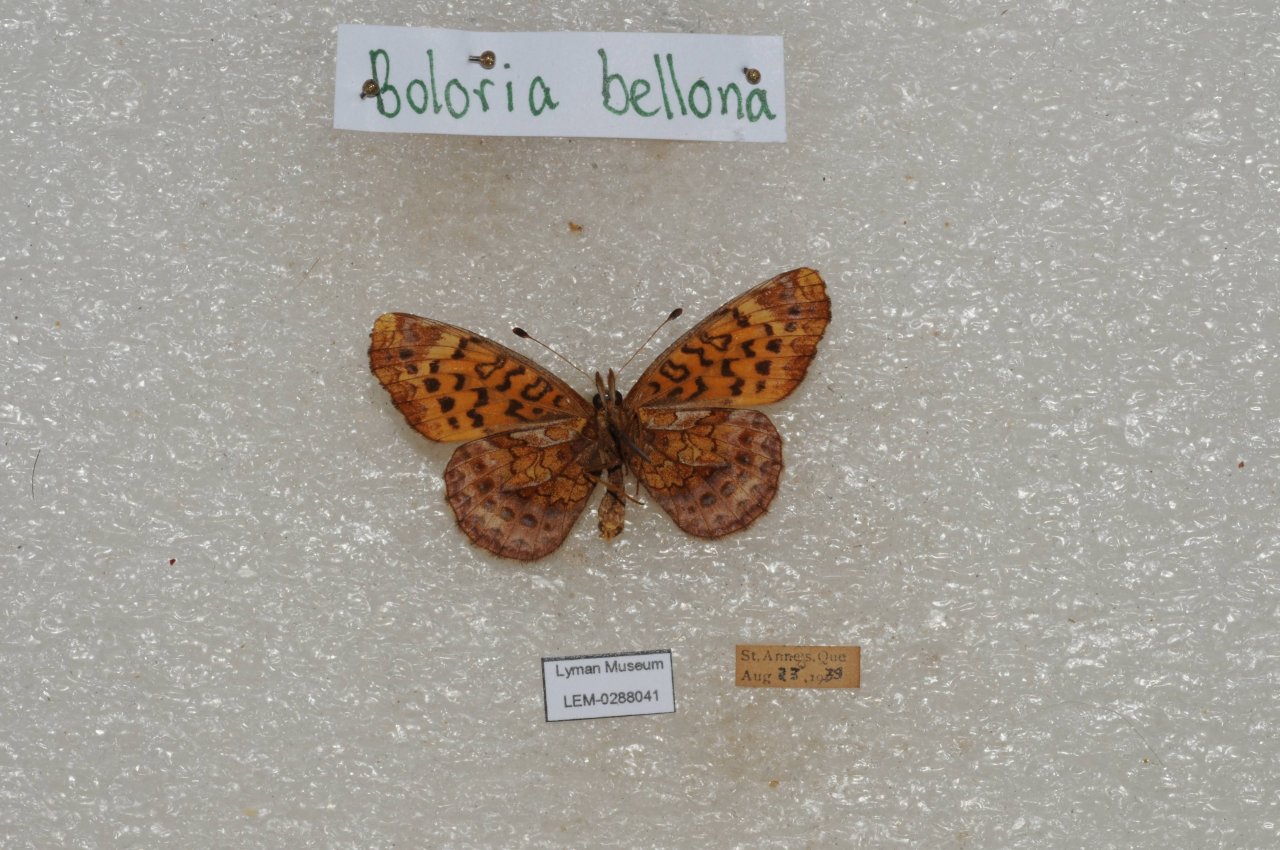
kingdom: Animalia
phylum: Arthropoda
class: Insecta
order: Lepidoptera
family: Nymphalidae
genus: Clossiana
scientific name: Clossiana toddi
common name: Meadow Fritillary
